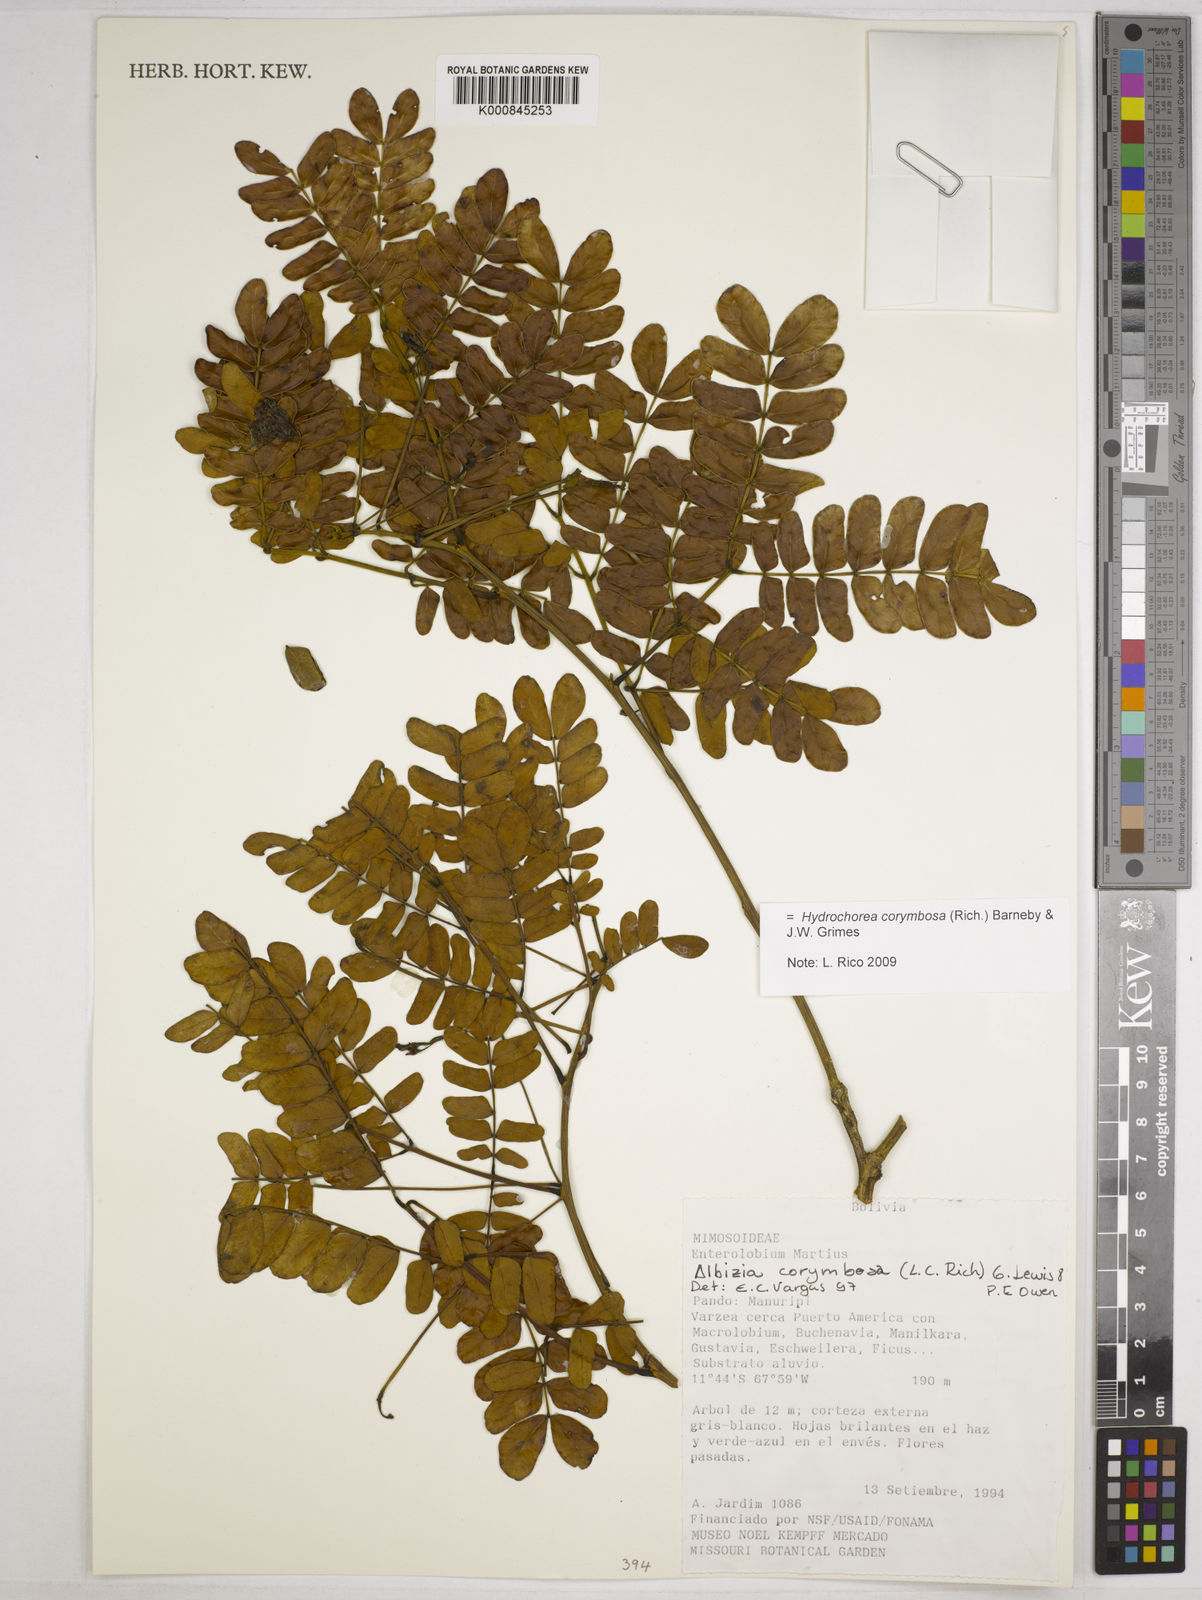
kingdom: Plantae
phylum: Tracheophyta
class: Magnoliopsida
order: Fabales
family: Fabaceae
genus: Hydrochorea
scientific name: Hydrochorea corymbosa
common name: Swamp manariballi
